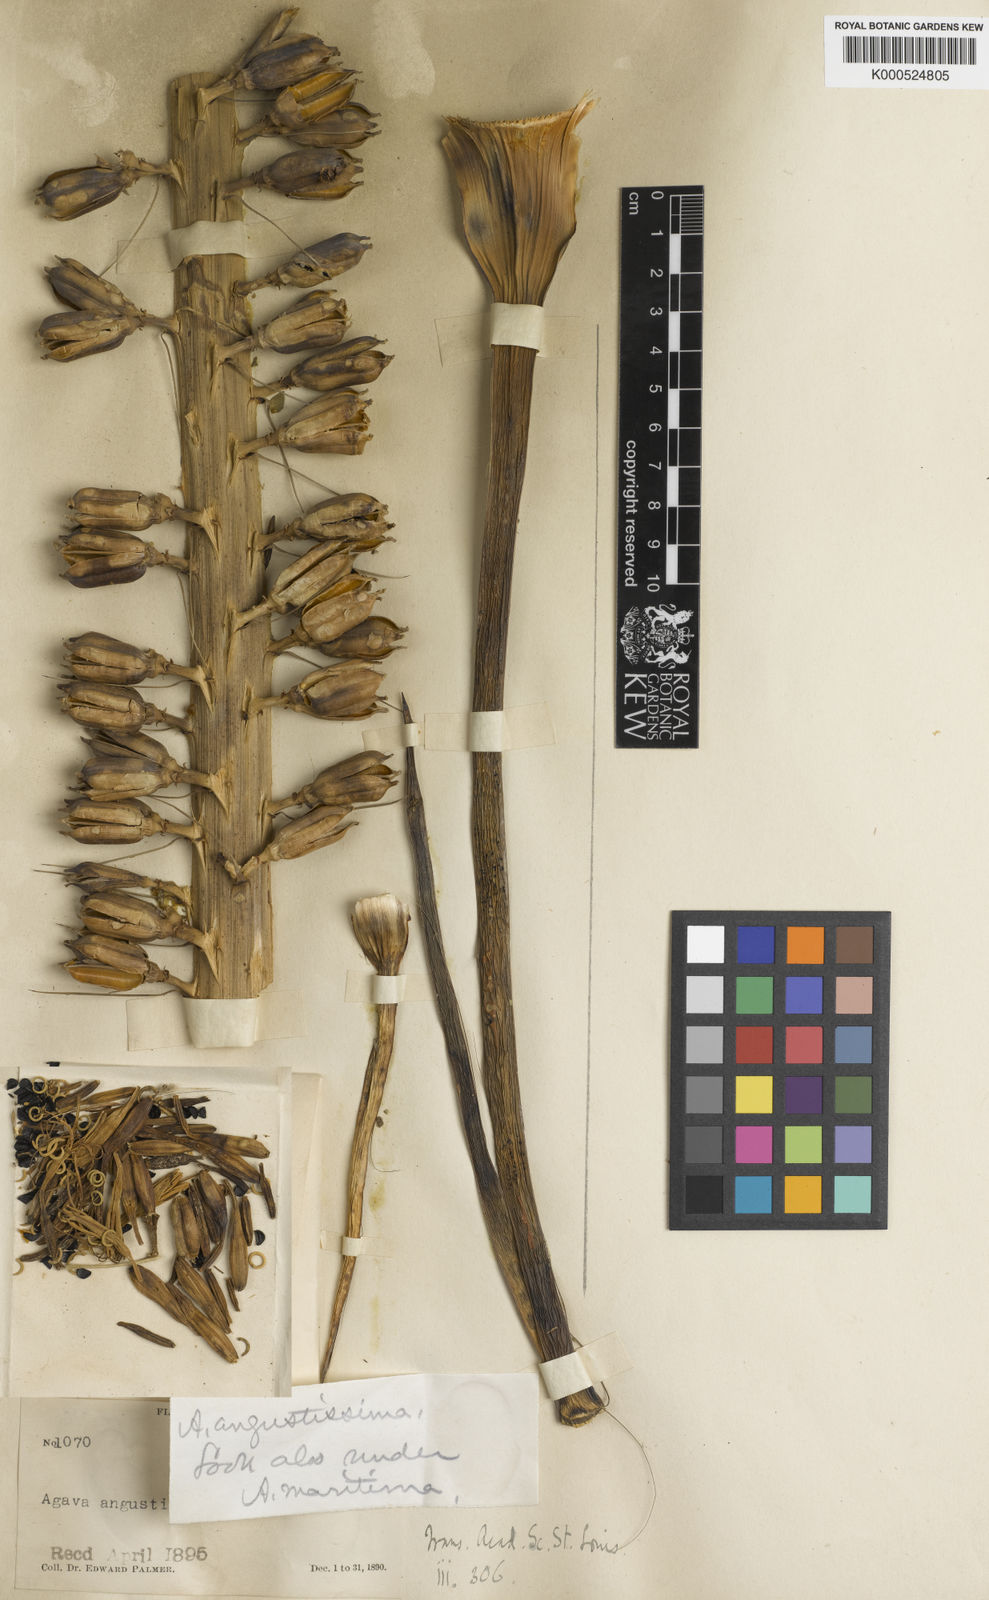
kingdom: Plantae
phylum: Tracheophyta
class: Liliopsida
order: Asparagales
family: Asparagaceae
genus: Agave
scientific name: Agave ortgiesiana
